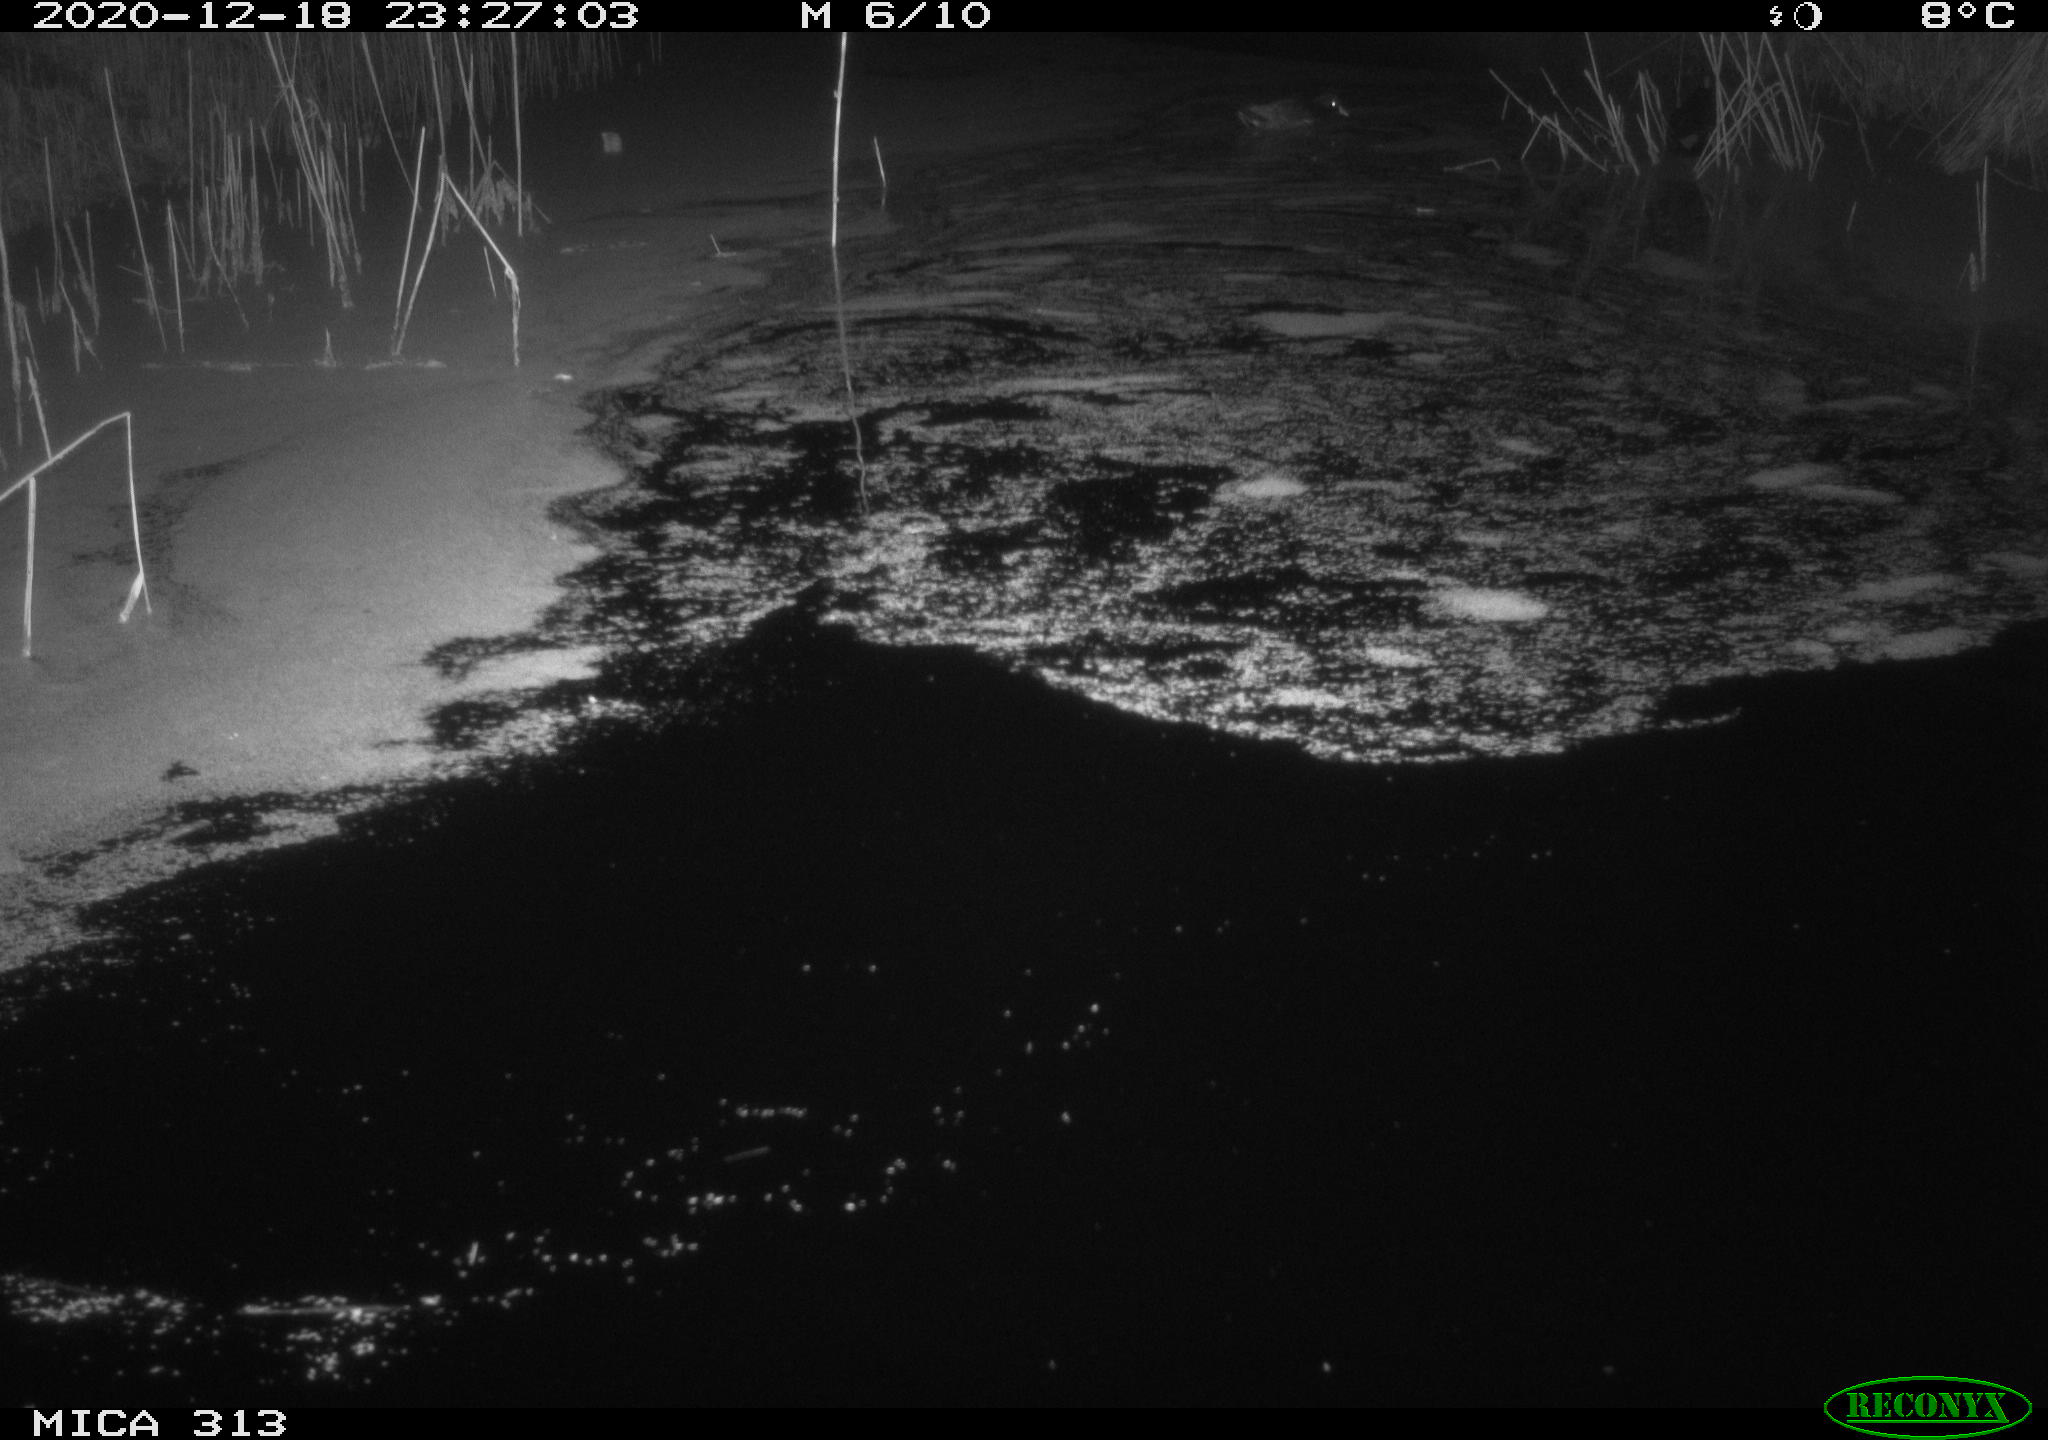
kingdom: Animalia
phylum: Chordata
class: Mammalia
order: Rodentia
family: Muridae
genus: Rattus
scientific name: Rattus norvegicus
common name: Brown rat
